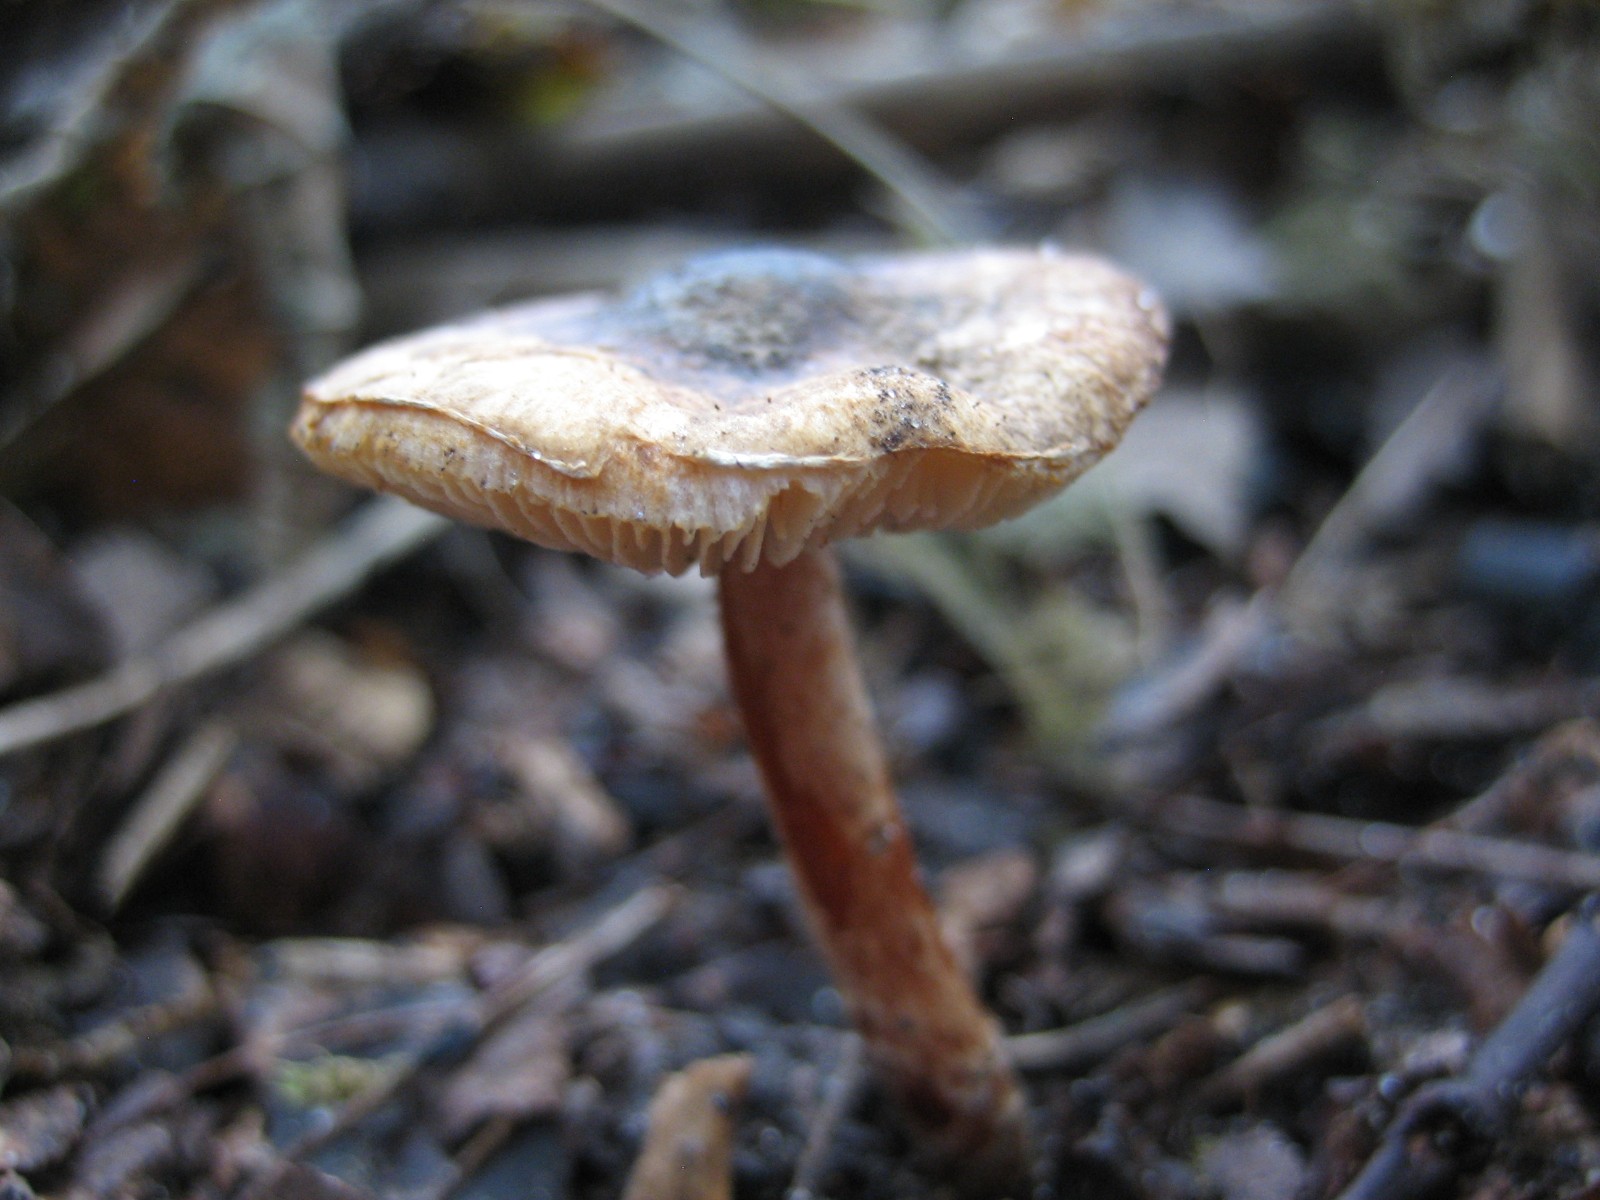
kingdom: Fungi
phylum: Basidiomycota
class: Agaricomycetes
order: Agaricales
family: Agaricaceae
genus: Lepiota
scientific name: Lepiota grangei
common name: grønskællet parasolhat
